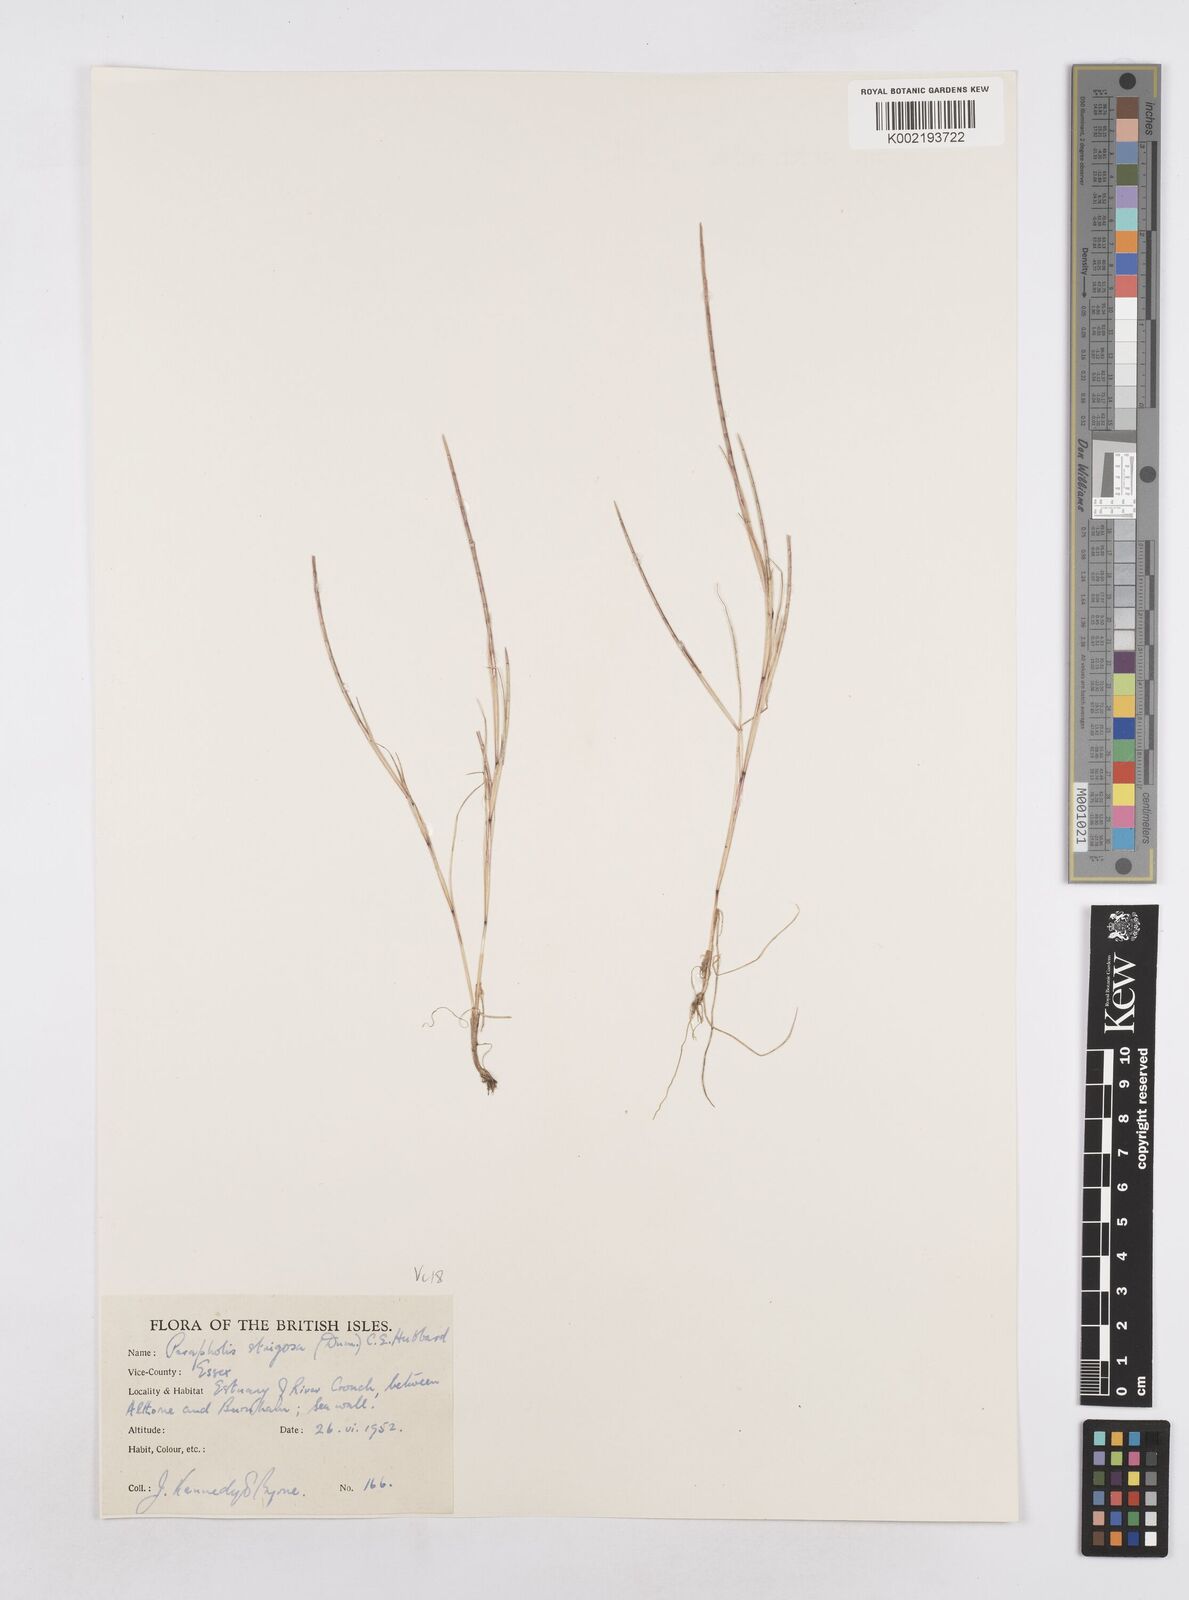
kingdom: Plantae
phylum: Tracheophyta
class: Liliopsida
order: Poales
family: Poaceae
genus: Parapholis
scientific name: Parapholis strigosa
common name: Hard-grass
